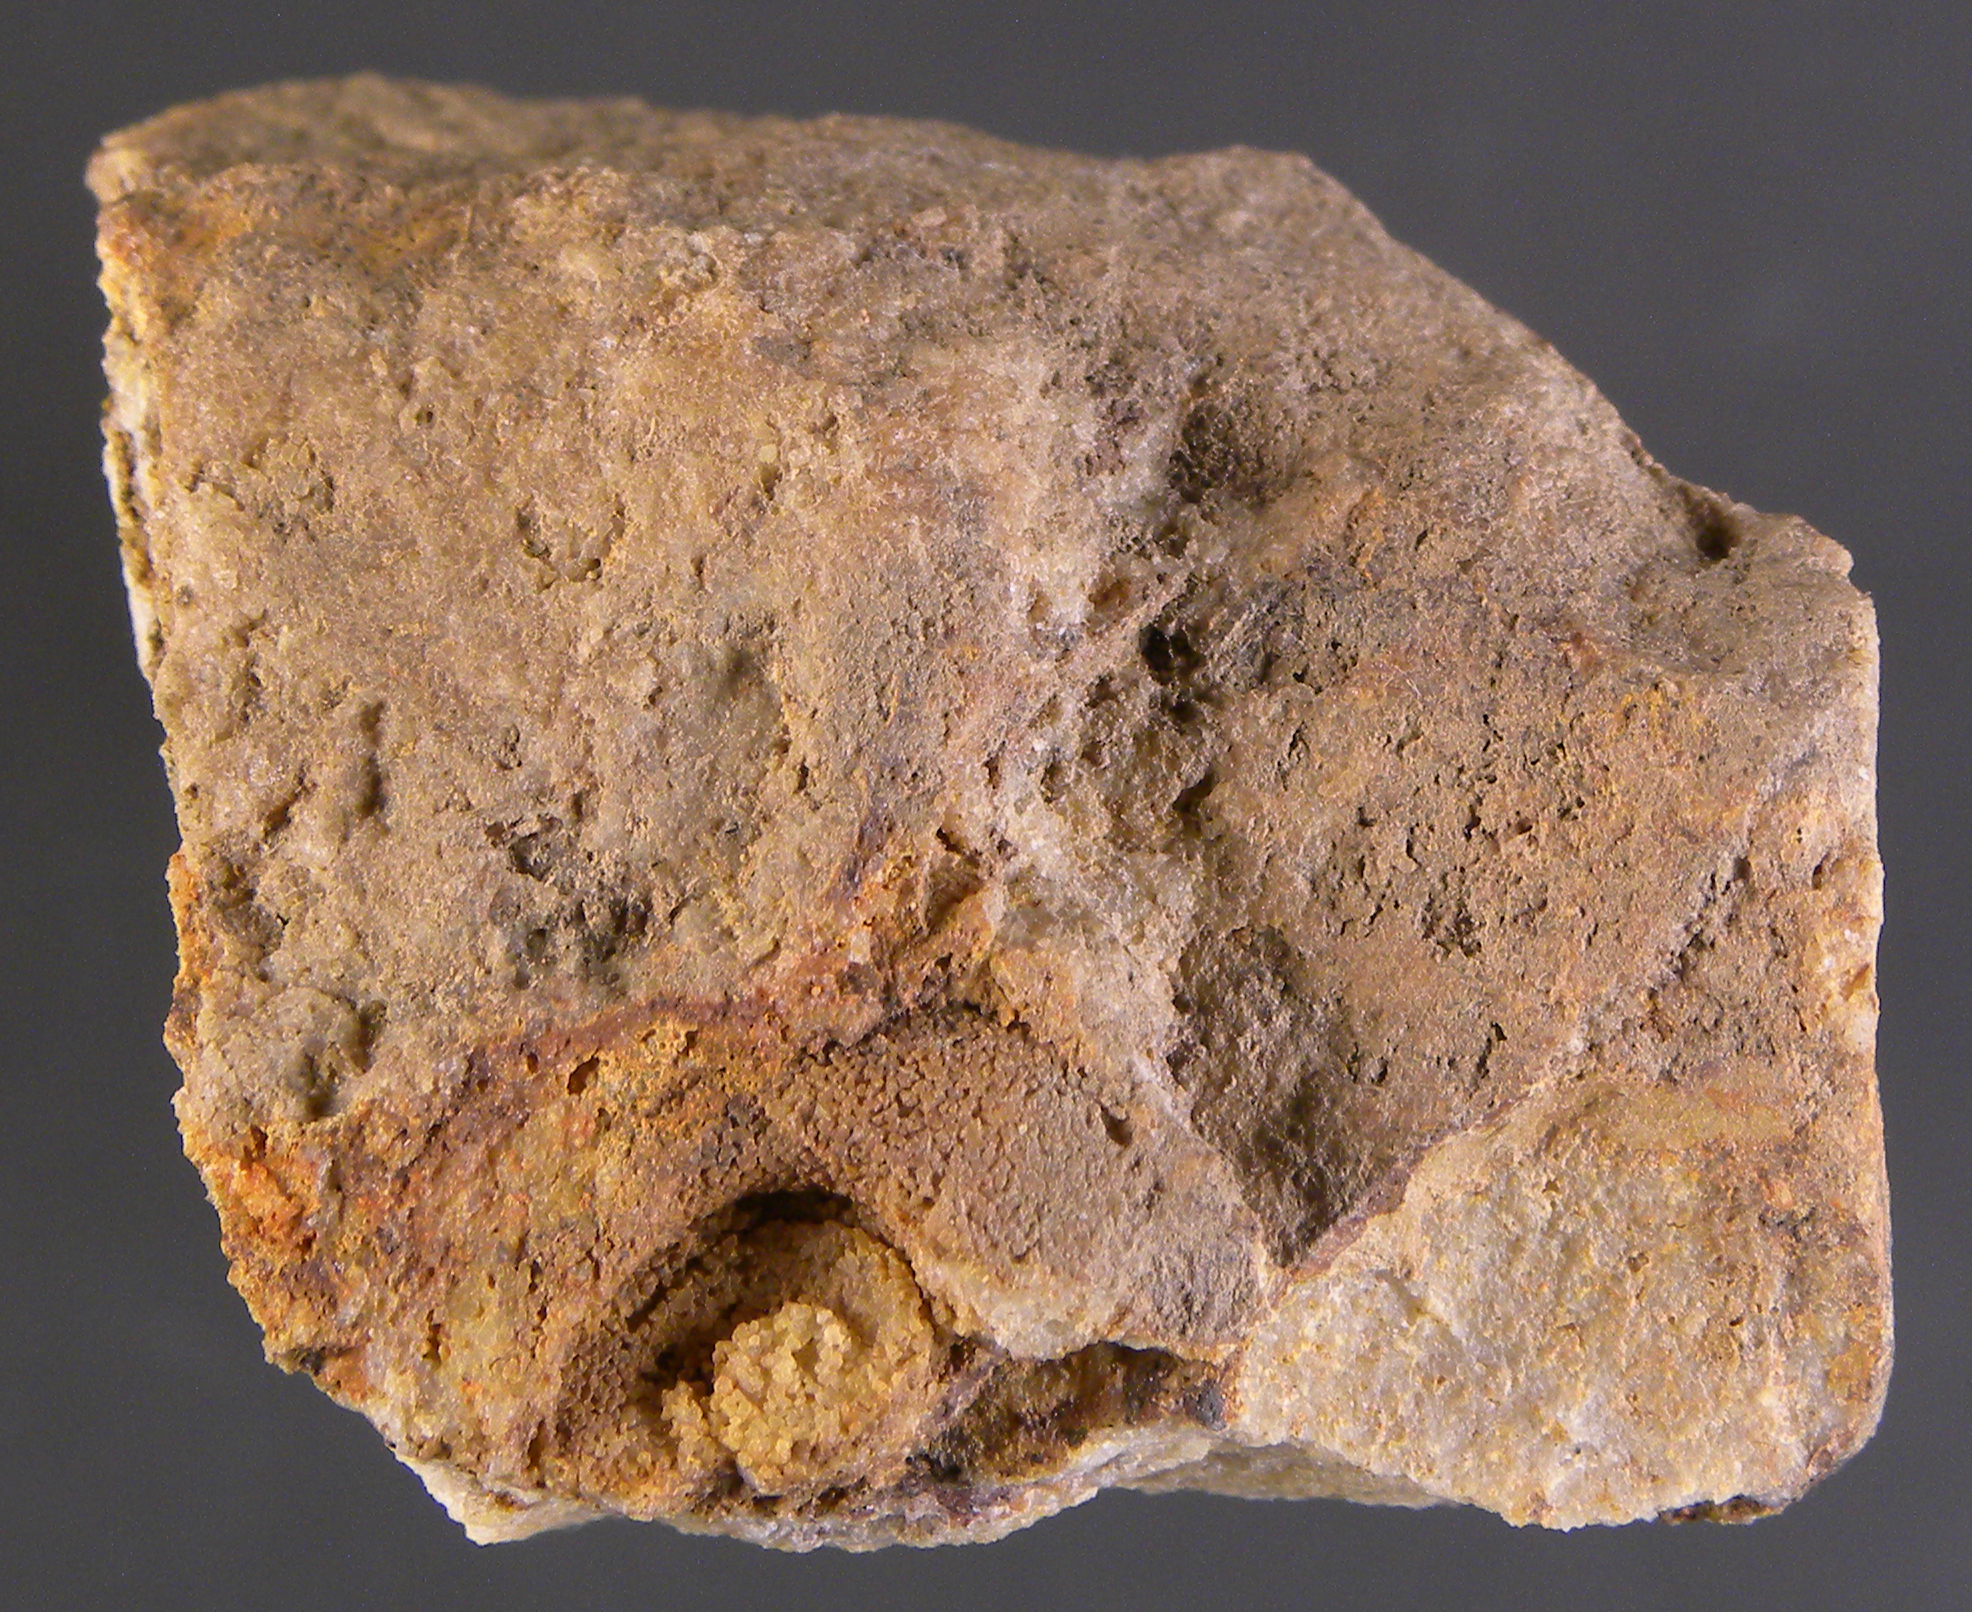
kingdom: Animalia
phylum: Mollusca
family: Tropidodiscidae
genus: Tropidodiscus
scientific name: Tropidodiscus
